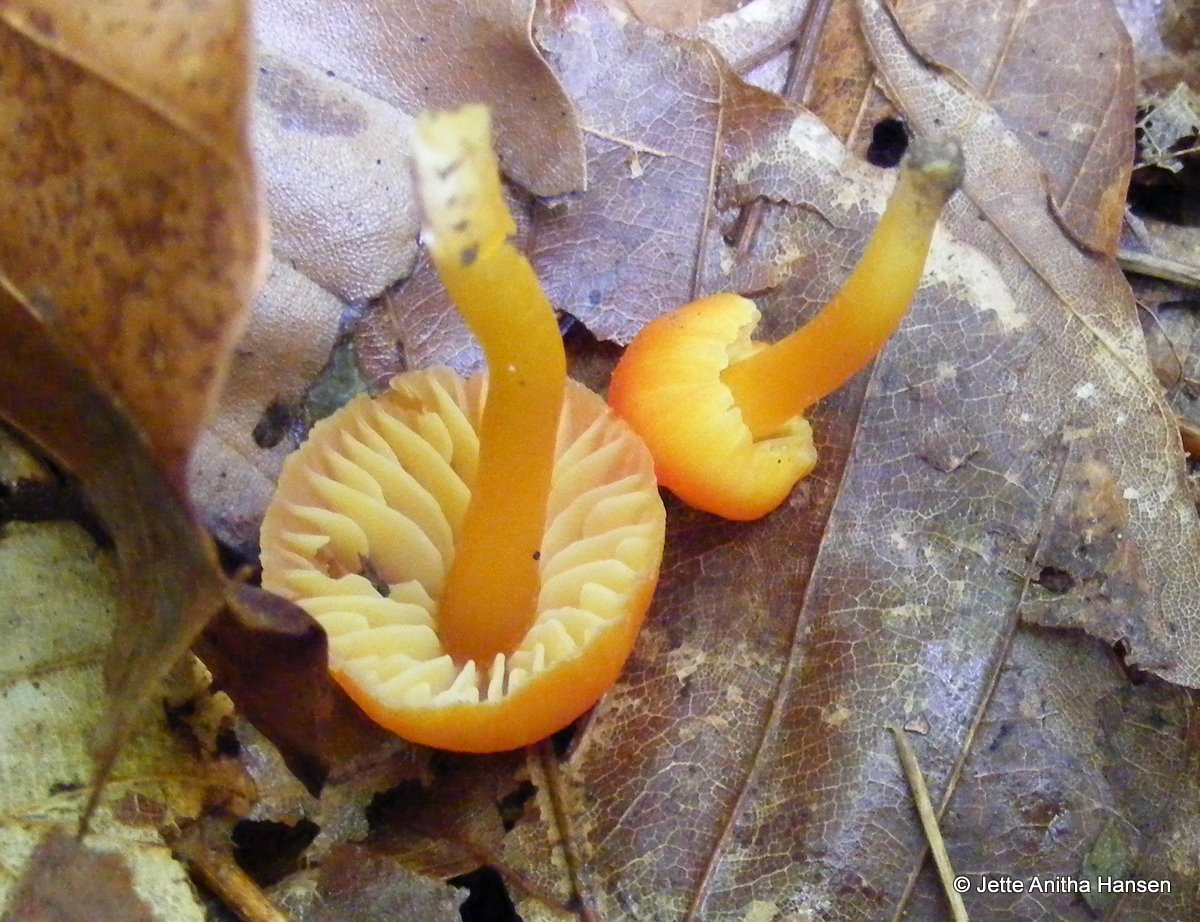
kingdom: Fungi
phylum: Basidiomycota
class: Agaricomycetes
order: Agaricales
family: Hygrophoraceae
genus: Hygrocybe
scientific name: Hygrocybe miniata
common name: mønje-vokshat
